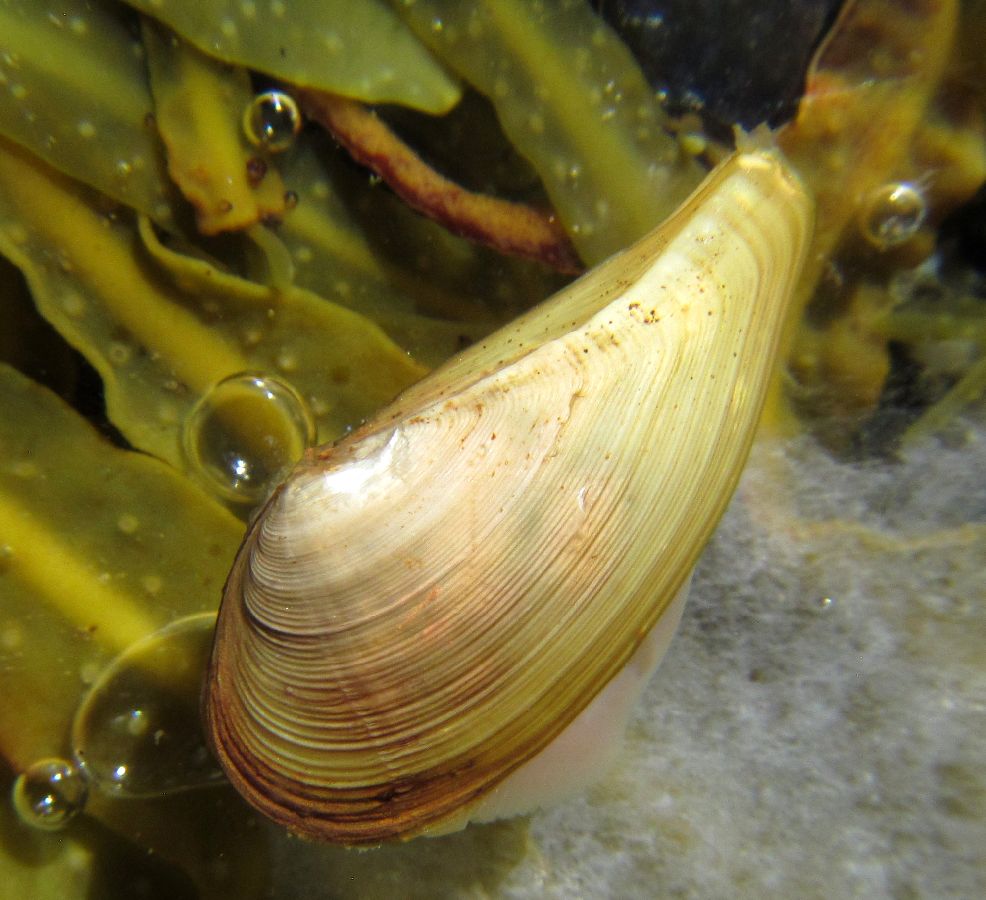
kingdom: Animalia
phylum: Mollusca
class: Bivalvia
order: Nuculanida
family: Nuculanidae
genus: Nuculana
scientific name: Nuculana pernula
